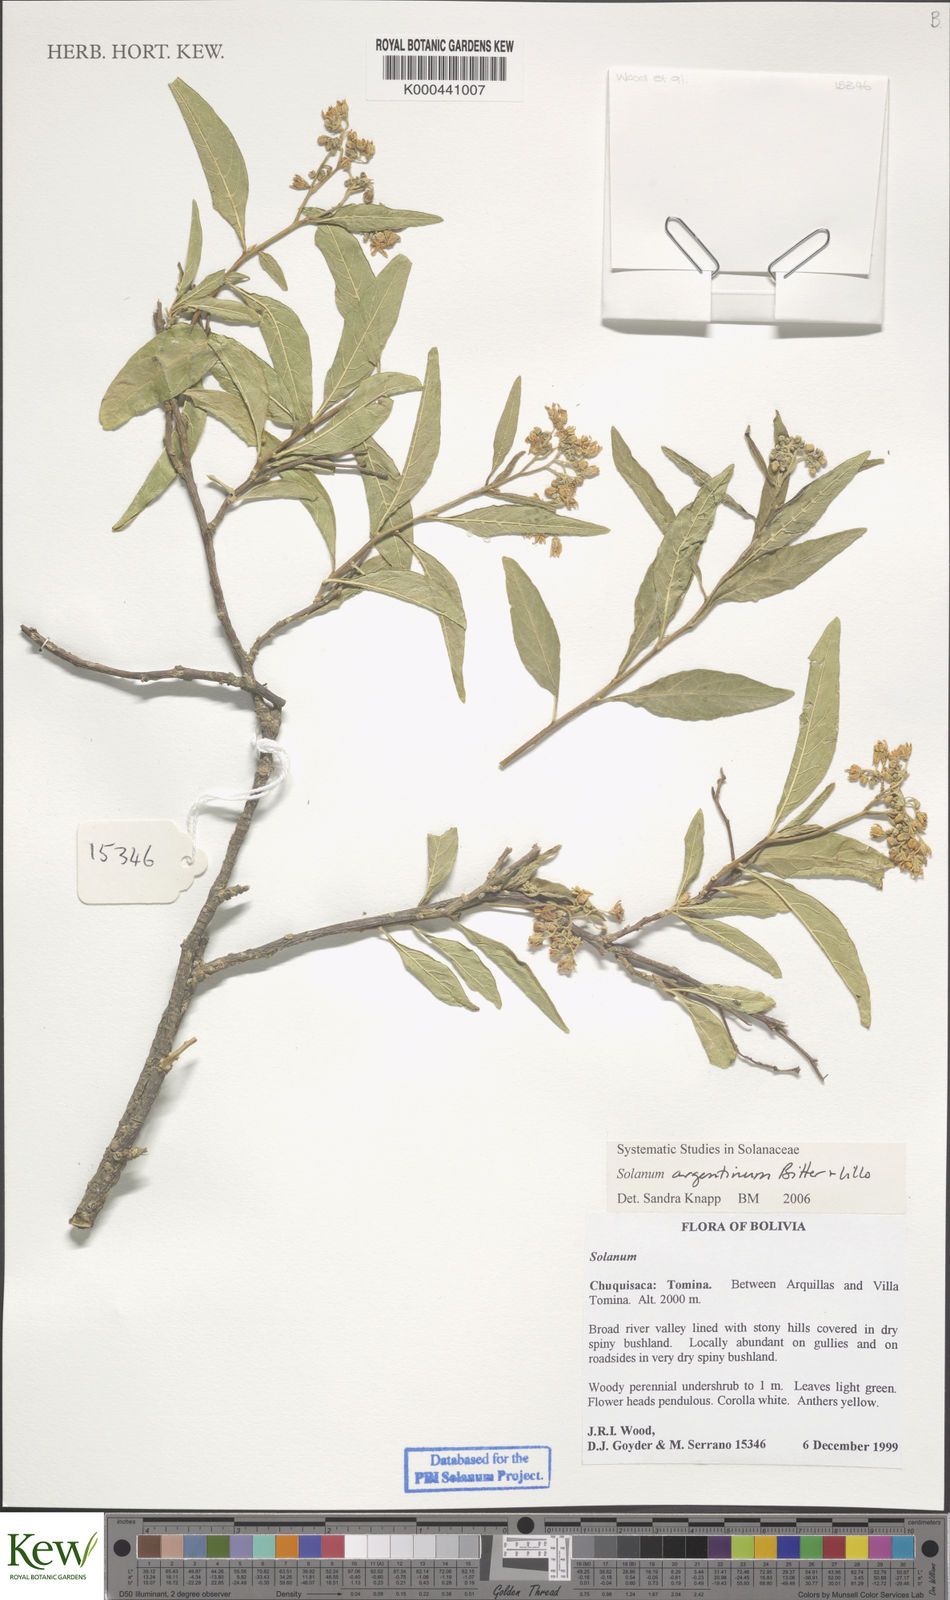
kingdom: Plantae
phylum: Tracheophyta
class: Magnoliopsida
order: Solanales
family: Solanaceae
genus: Solanum
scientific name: Solanum argentinum
